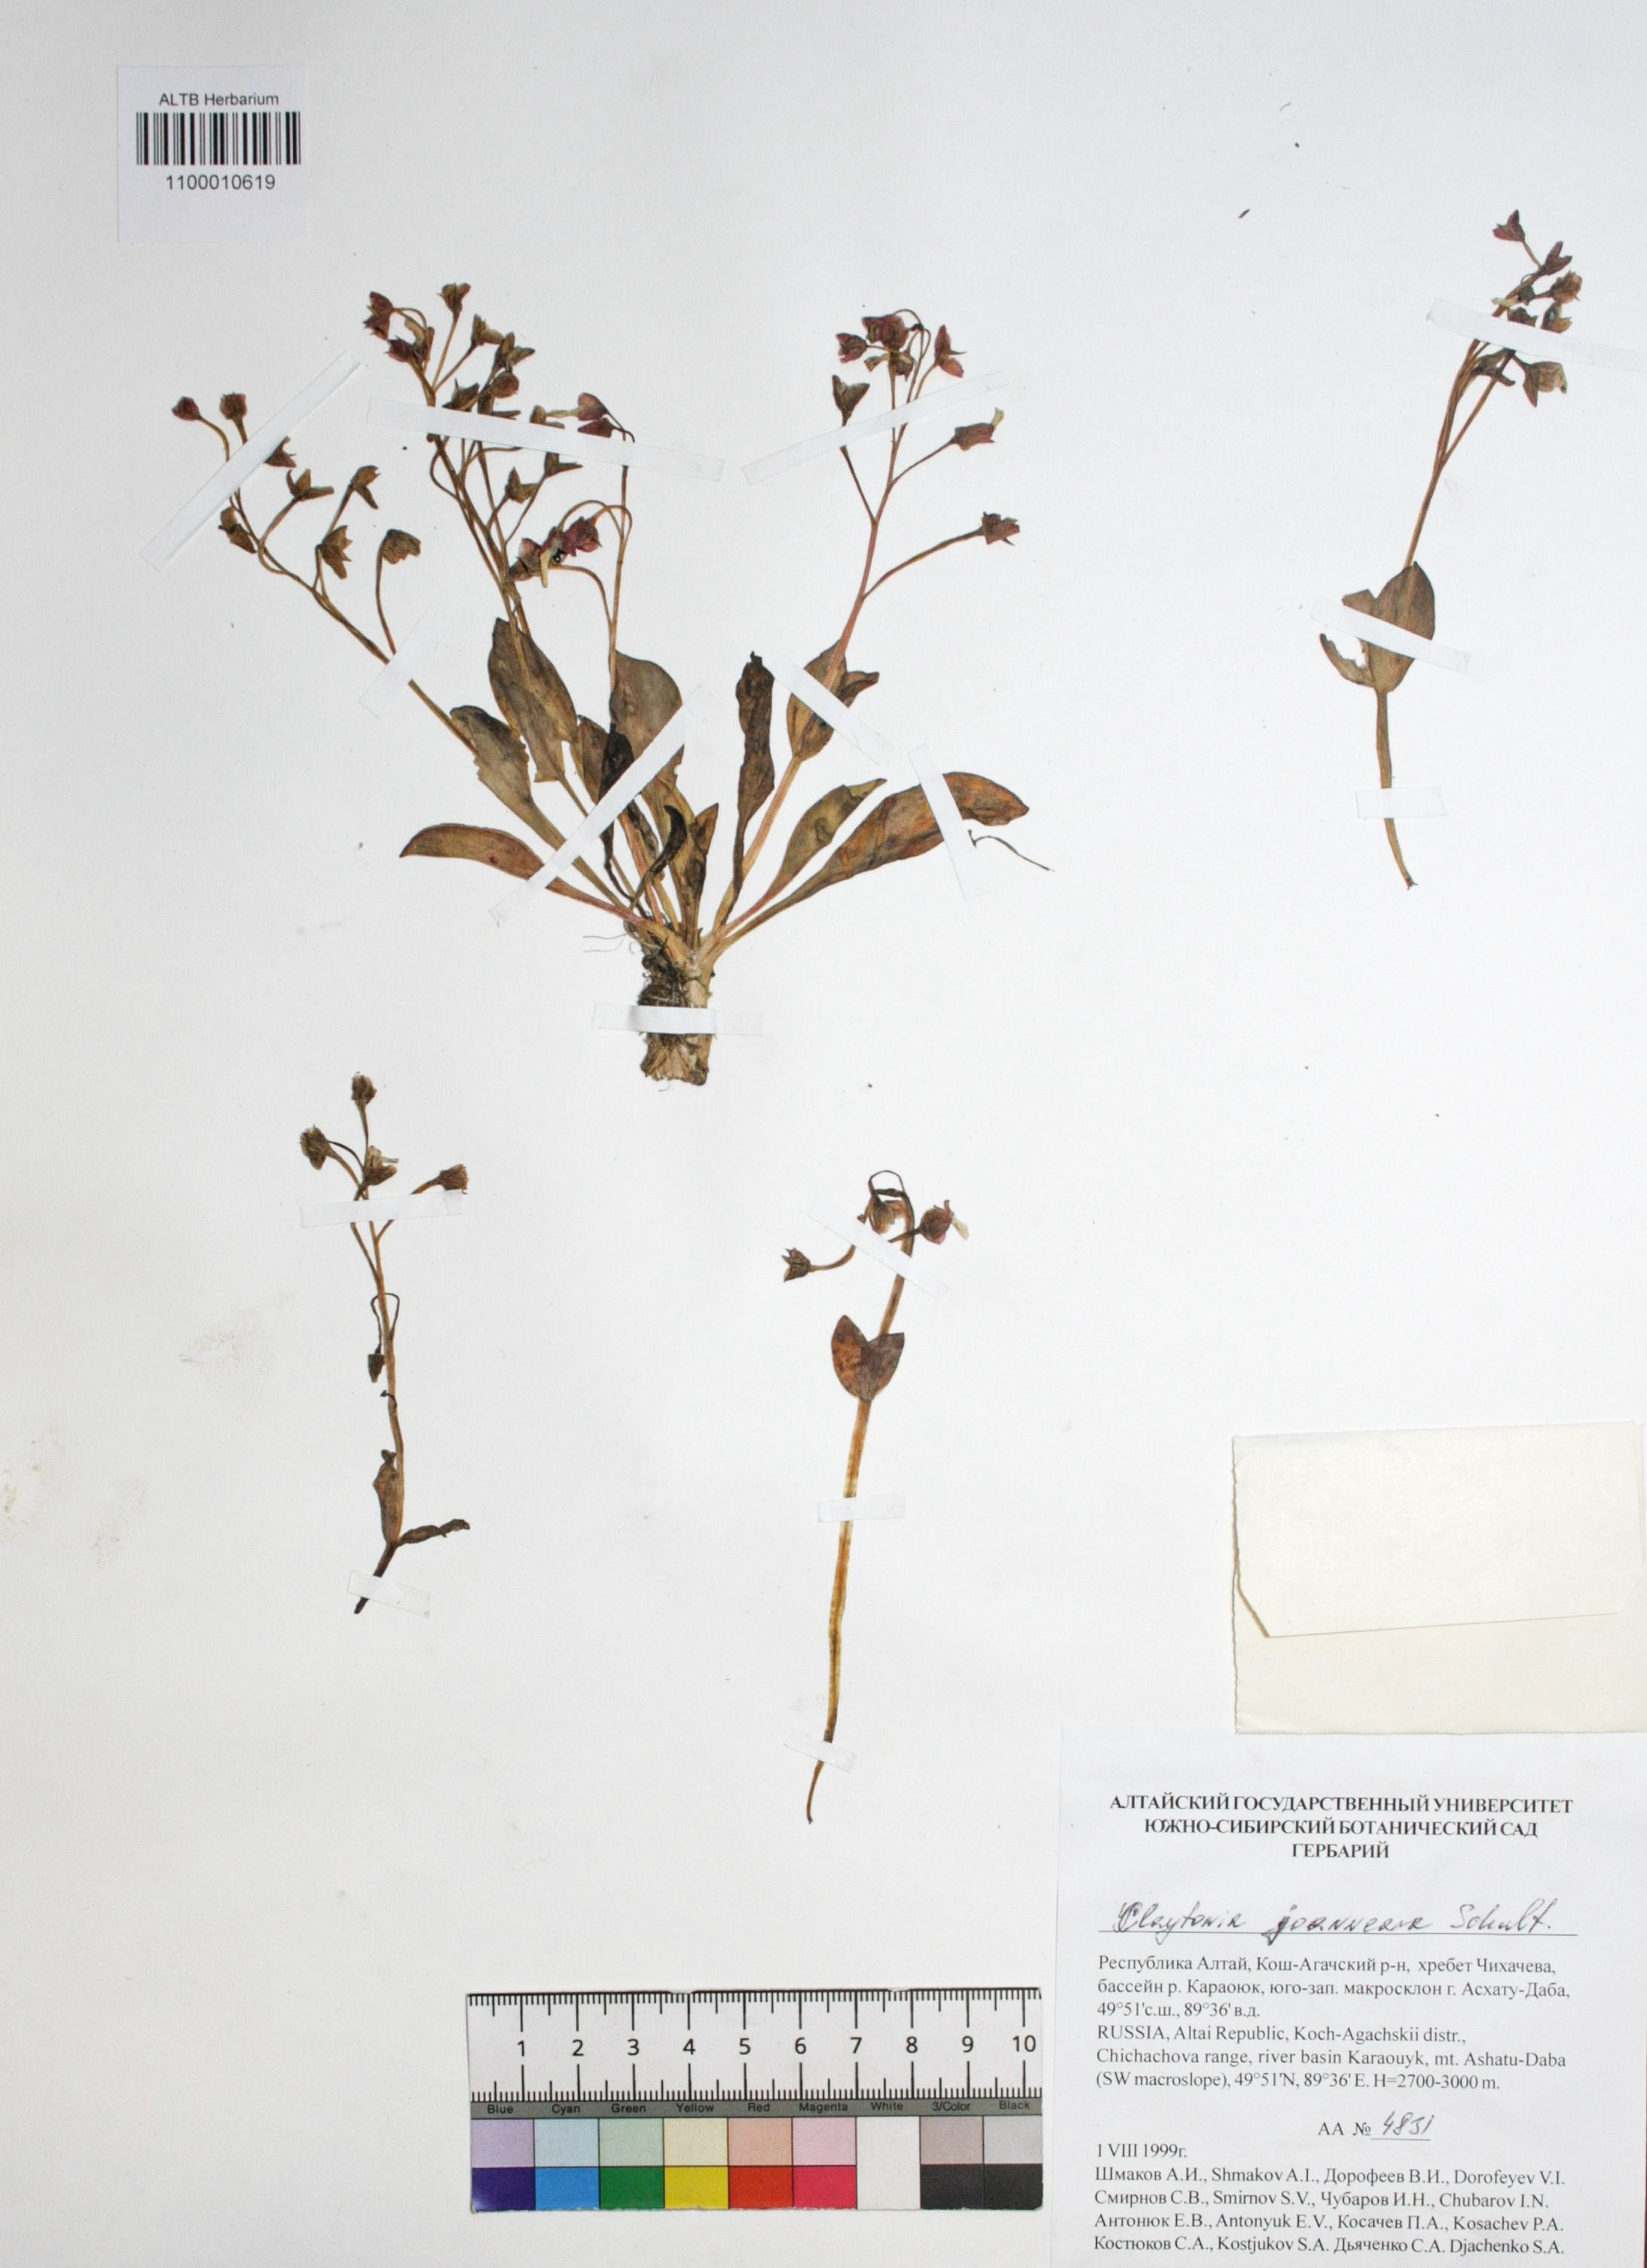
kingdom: Plantae
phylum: Tracheophyta
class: Magnoliopsida
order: Caryophyllales
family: Montiaceae
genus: Claytonia
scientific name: Claytonia joanneana
